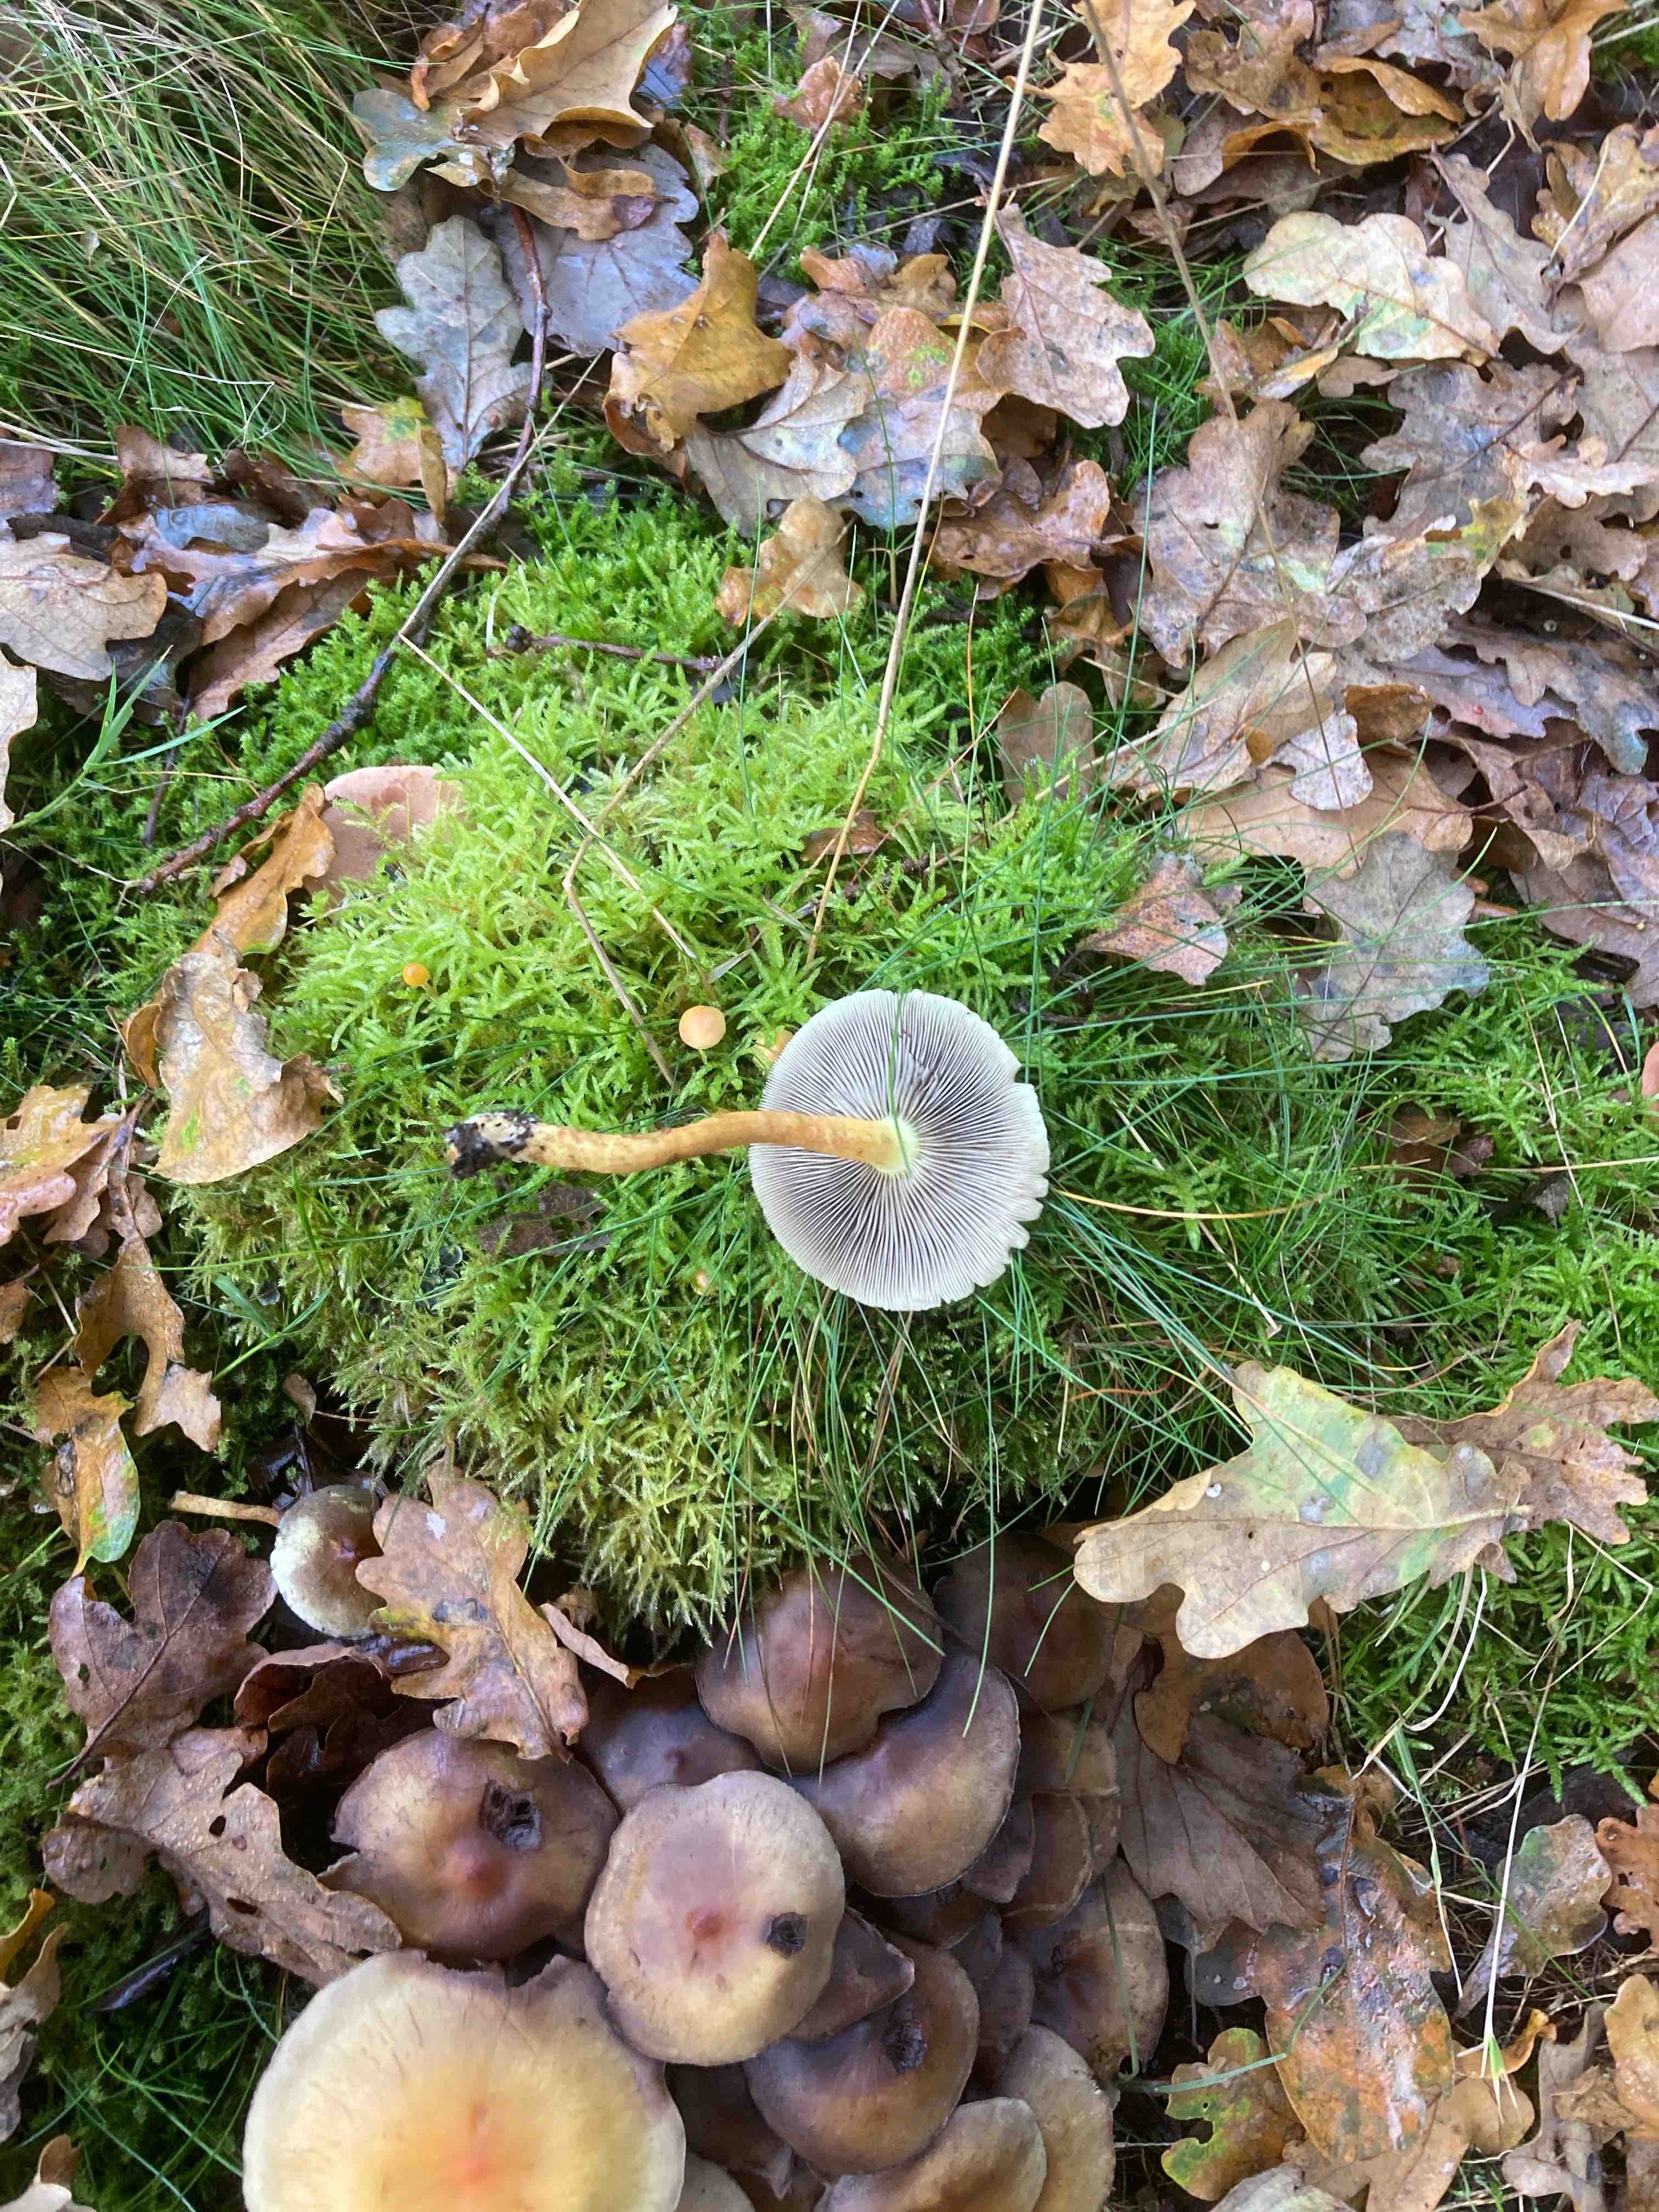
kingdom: Fungi
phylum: Basidiomycota
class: Agaricomycetes
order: Agaricales
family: Strophariaceae
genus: Hypholoma
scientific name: Hypholoma fasciculare
